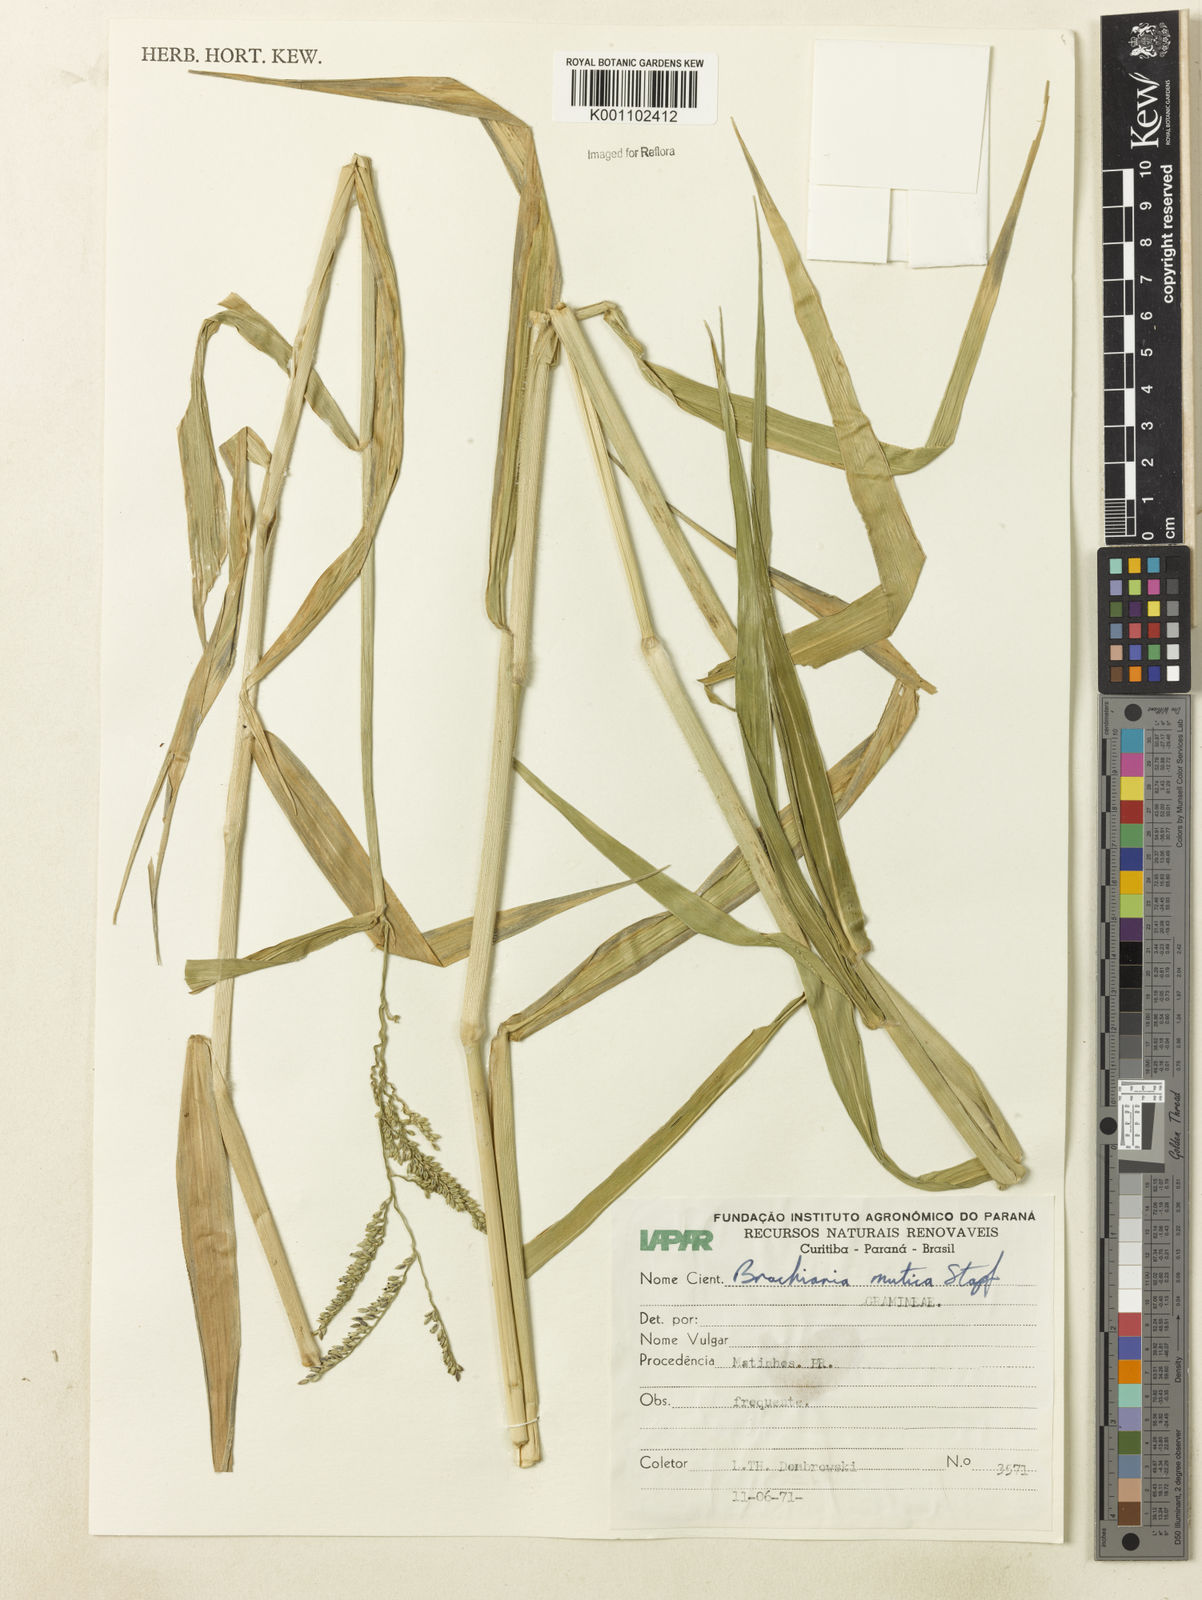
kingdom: Plantae
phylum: Tracheophyta
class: Liliopsida
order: Poales
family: Poaceae
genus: Urochloa
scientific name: Urochloa mutica
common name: Para grass
